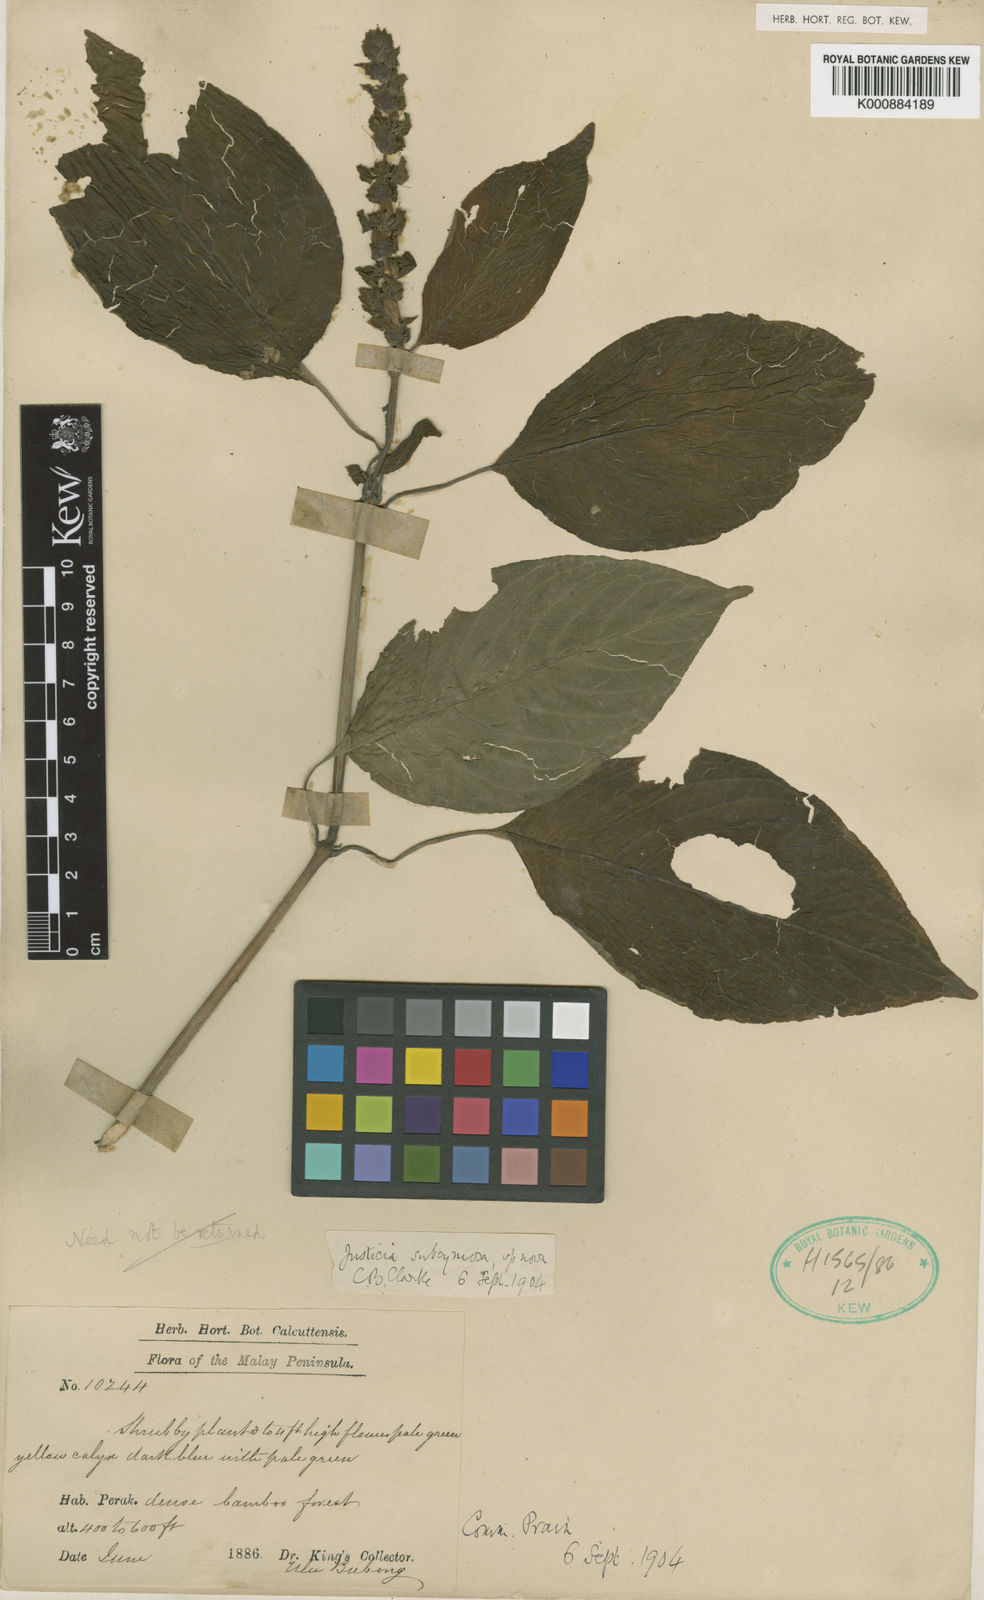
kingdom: Plantae
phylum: Tracheophyta
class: Magnoliopsida
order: Lamiales
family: Acanthaceae
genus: Justicia
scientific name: Justicia subcymosa
